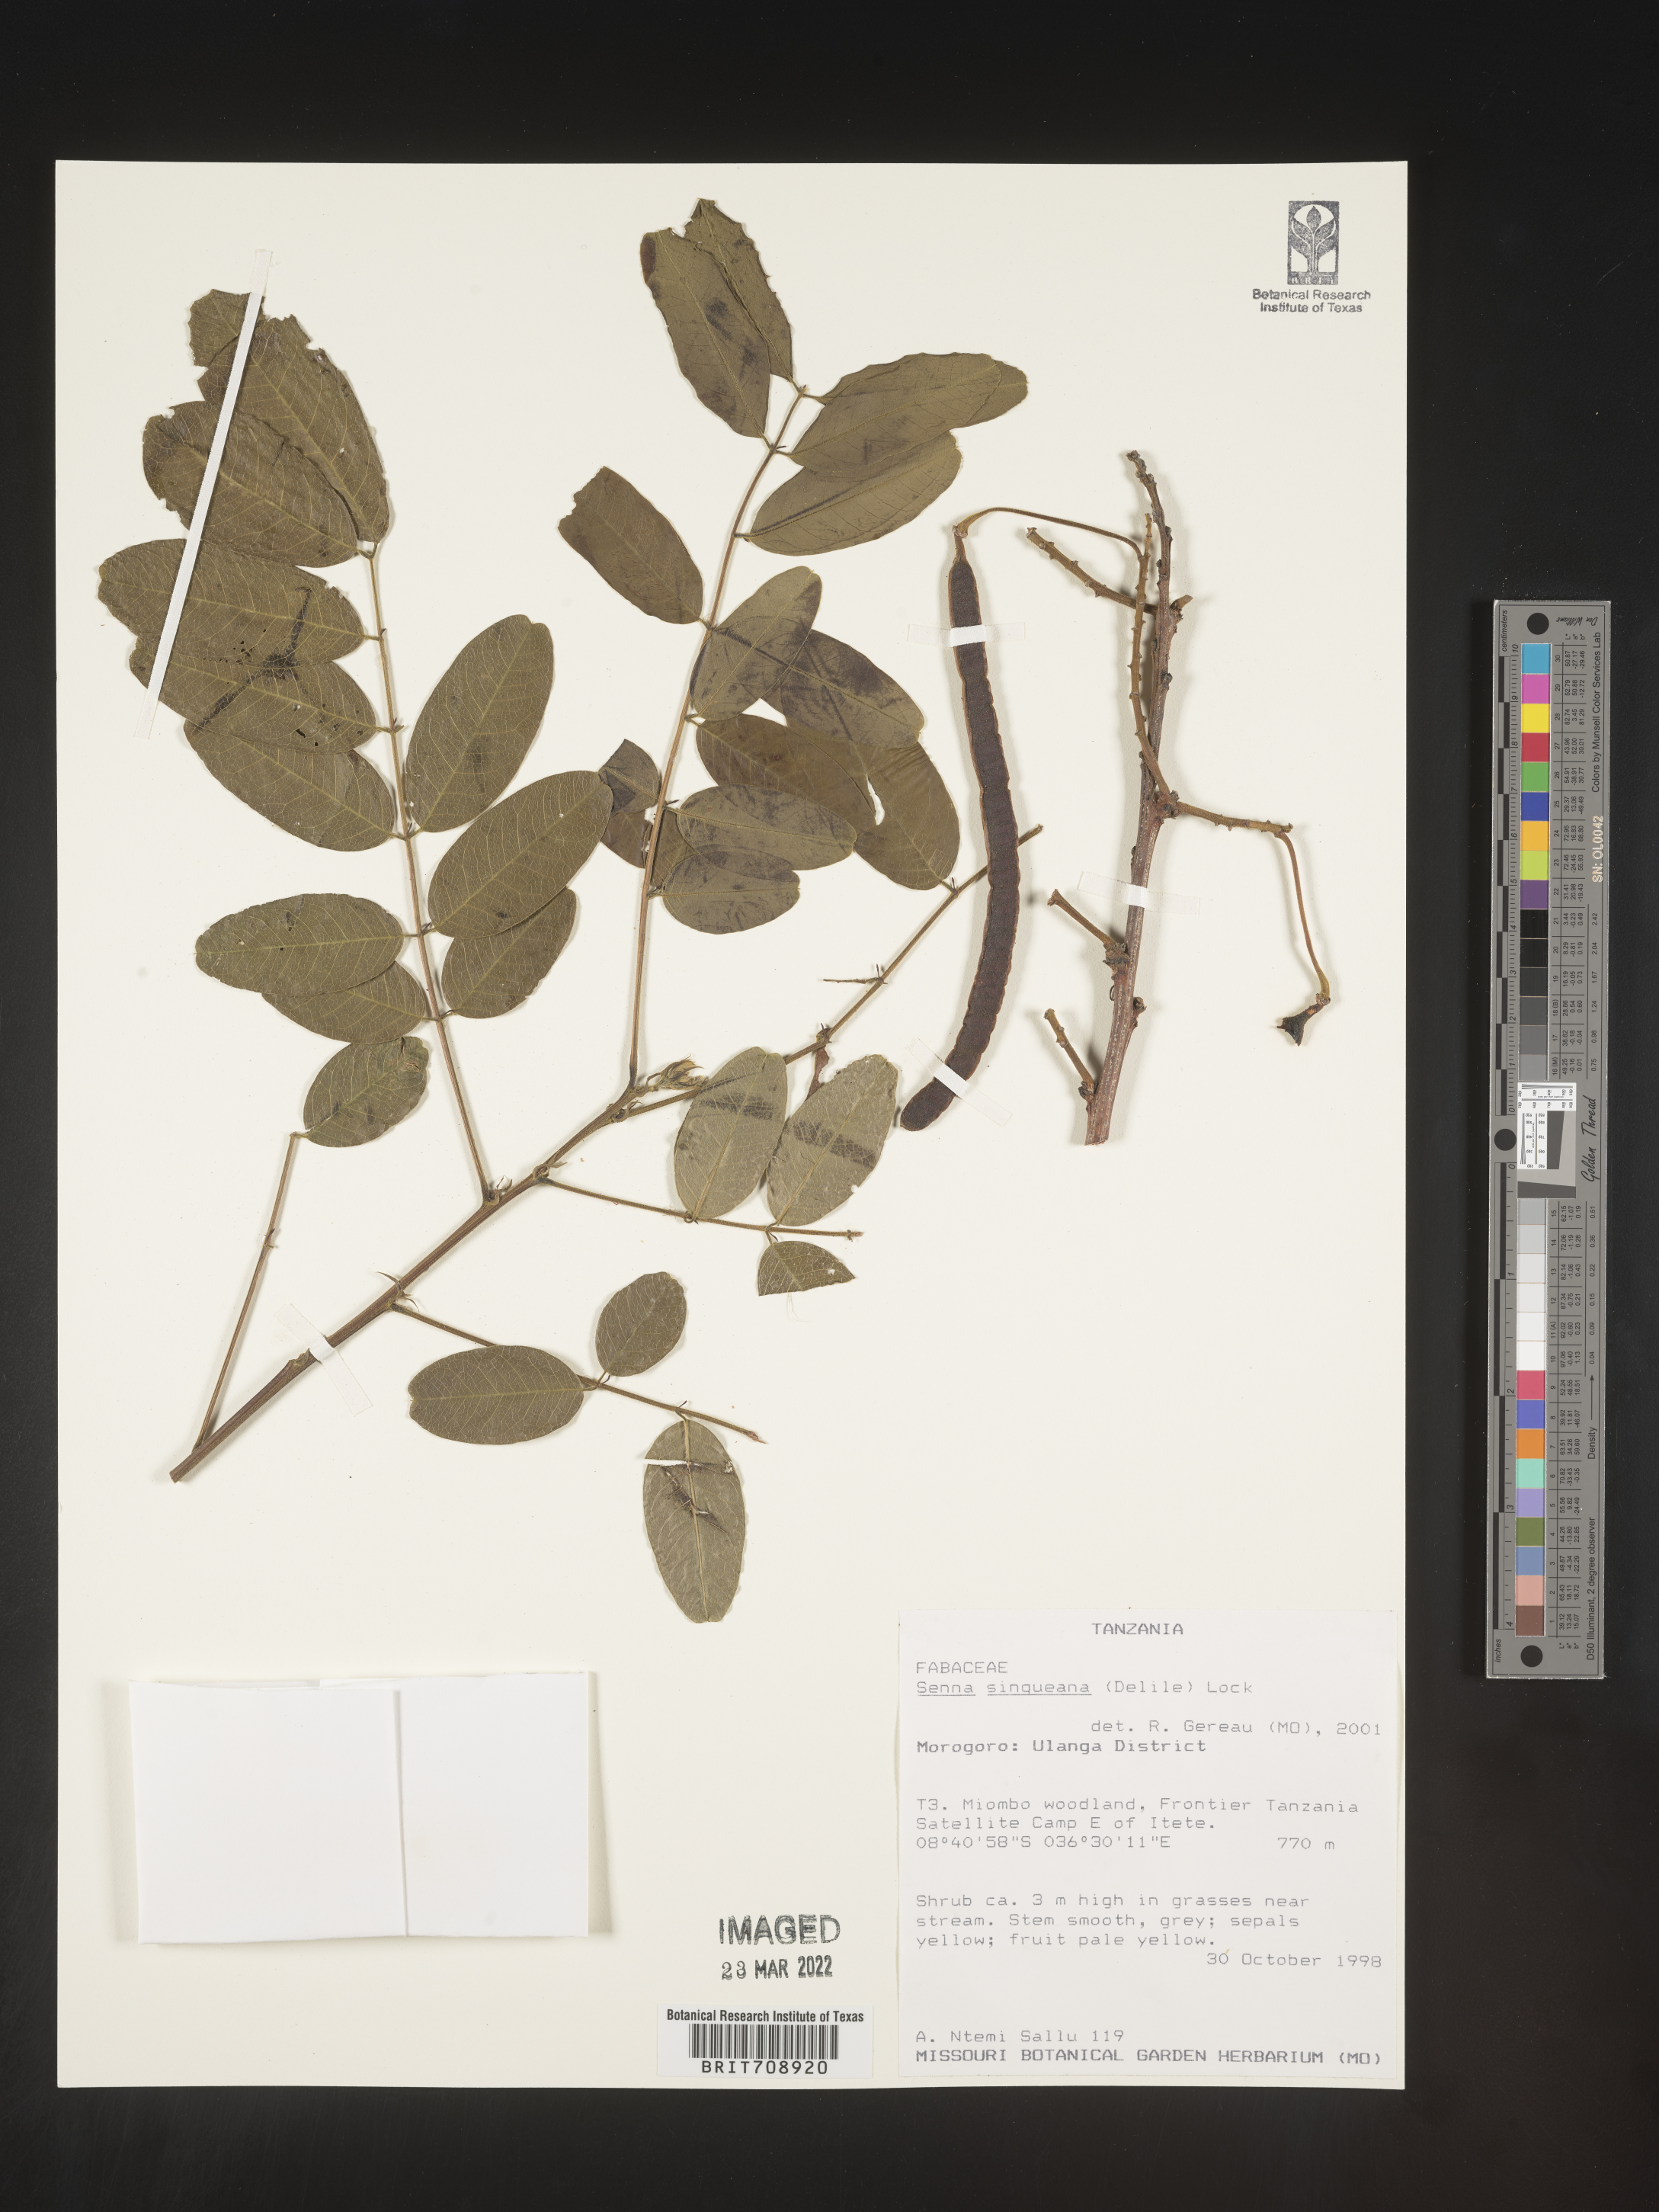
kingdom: Plantae
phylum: Tracheophyta
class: Magnoliopsida
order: Fabales
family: Fabaceae
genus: Senna
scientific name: Senna
